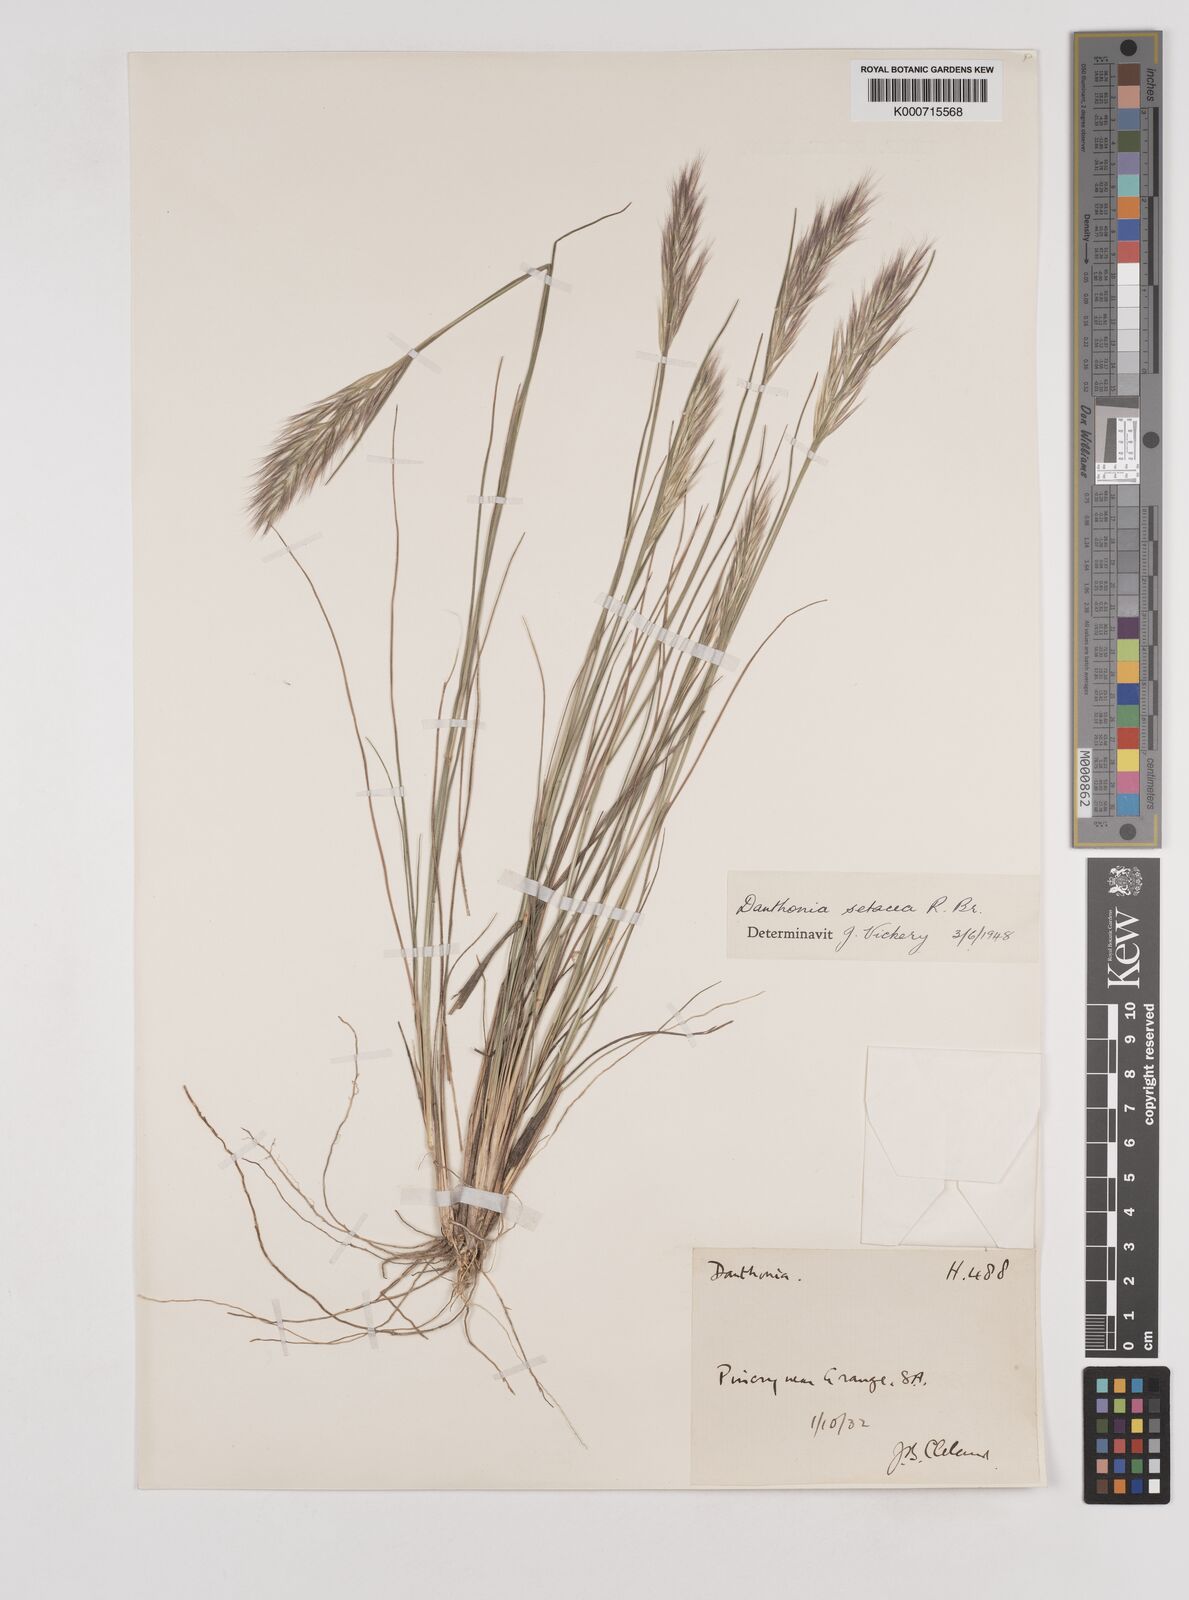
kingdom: Plantae
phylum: Tracheophyta
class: Liliopsida
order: Poales
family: Poaceae
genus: Rytidosperma
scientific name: Rytidosperma setaceum
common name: Small-flower wallaby grass
